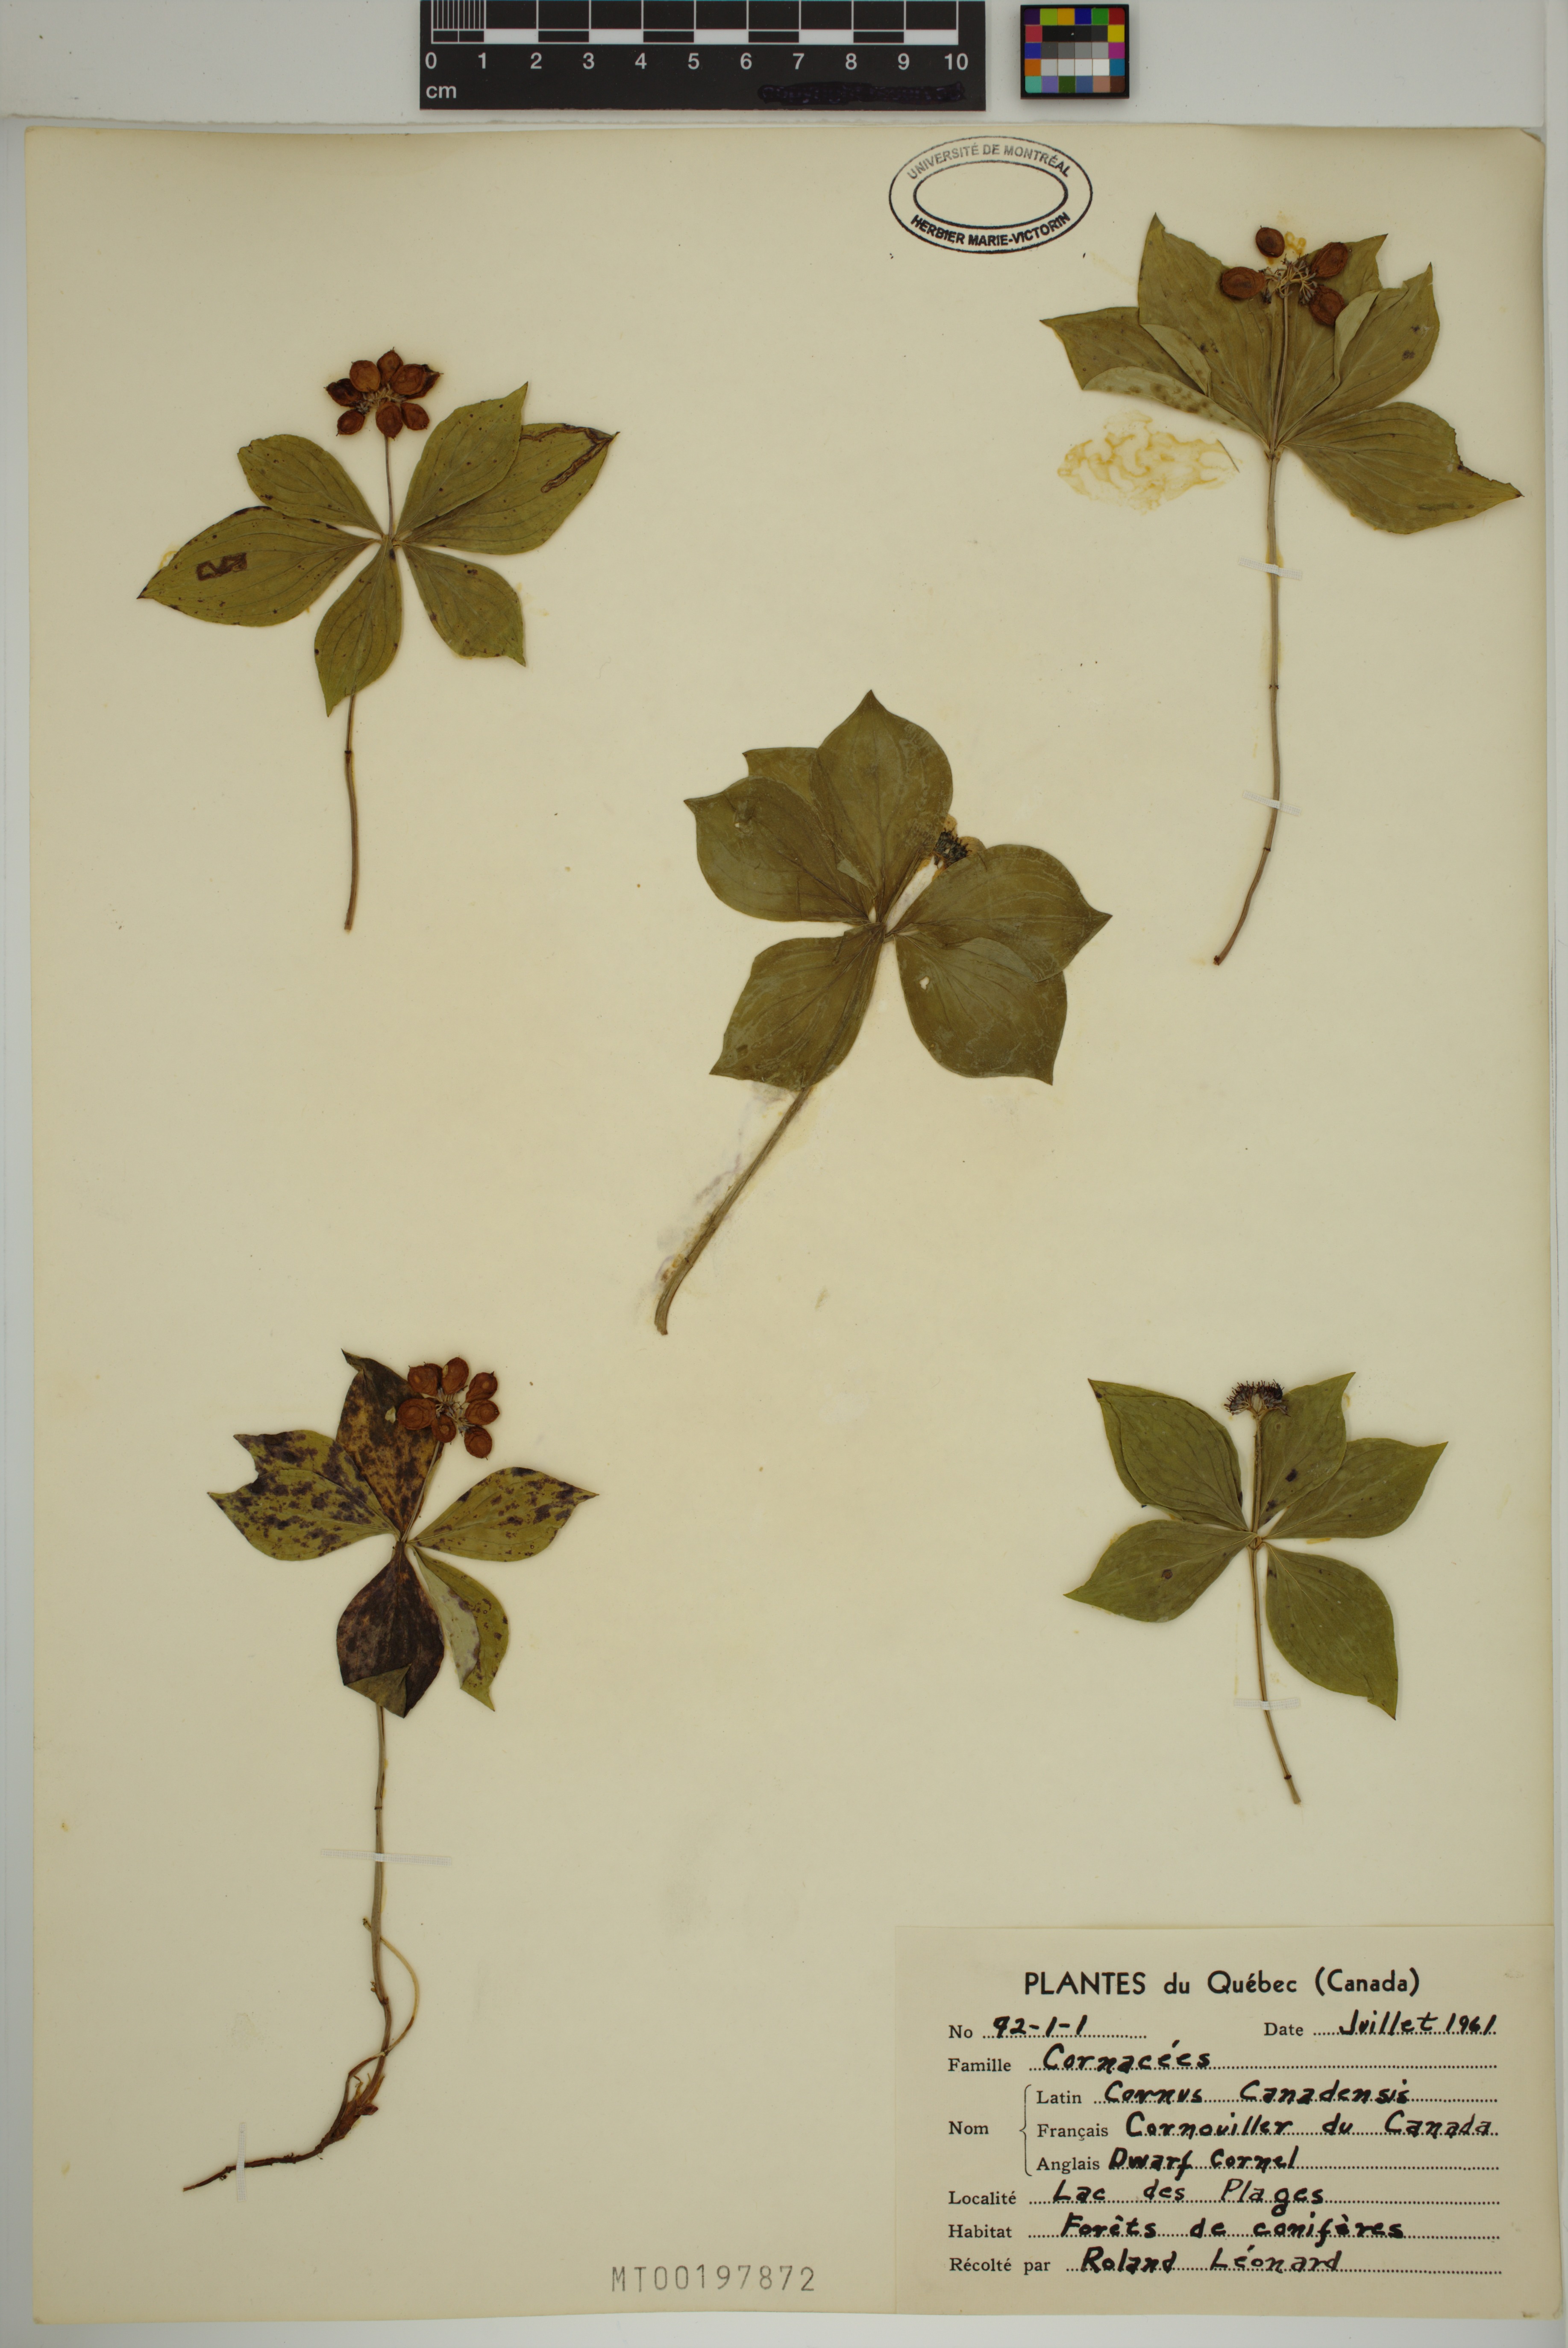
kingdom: Plantae
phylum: Tracheophyta
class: Magnoliopsida
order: Cornales
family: Cornaceae
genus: Cornus
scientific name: Cornus canadensis
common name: Creeping dogwood
